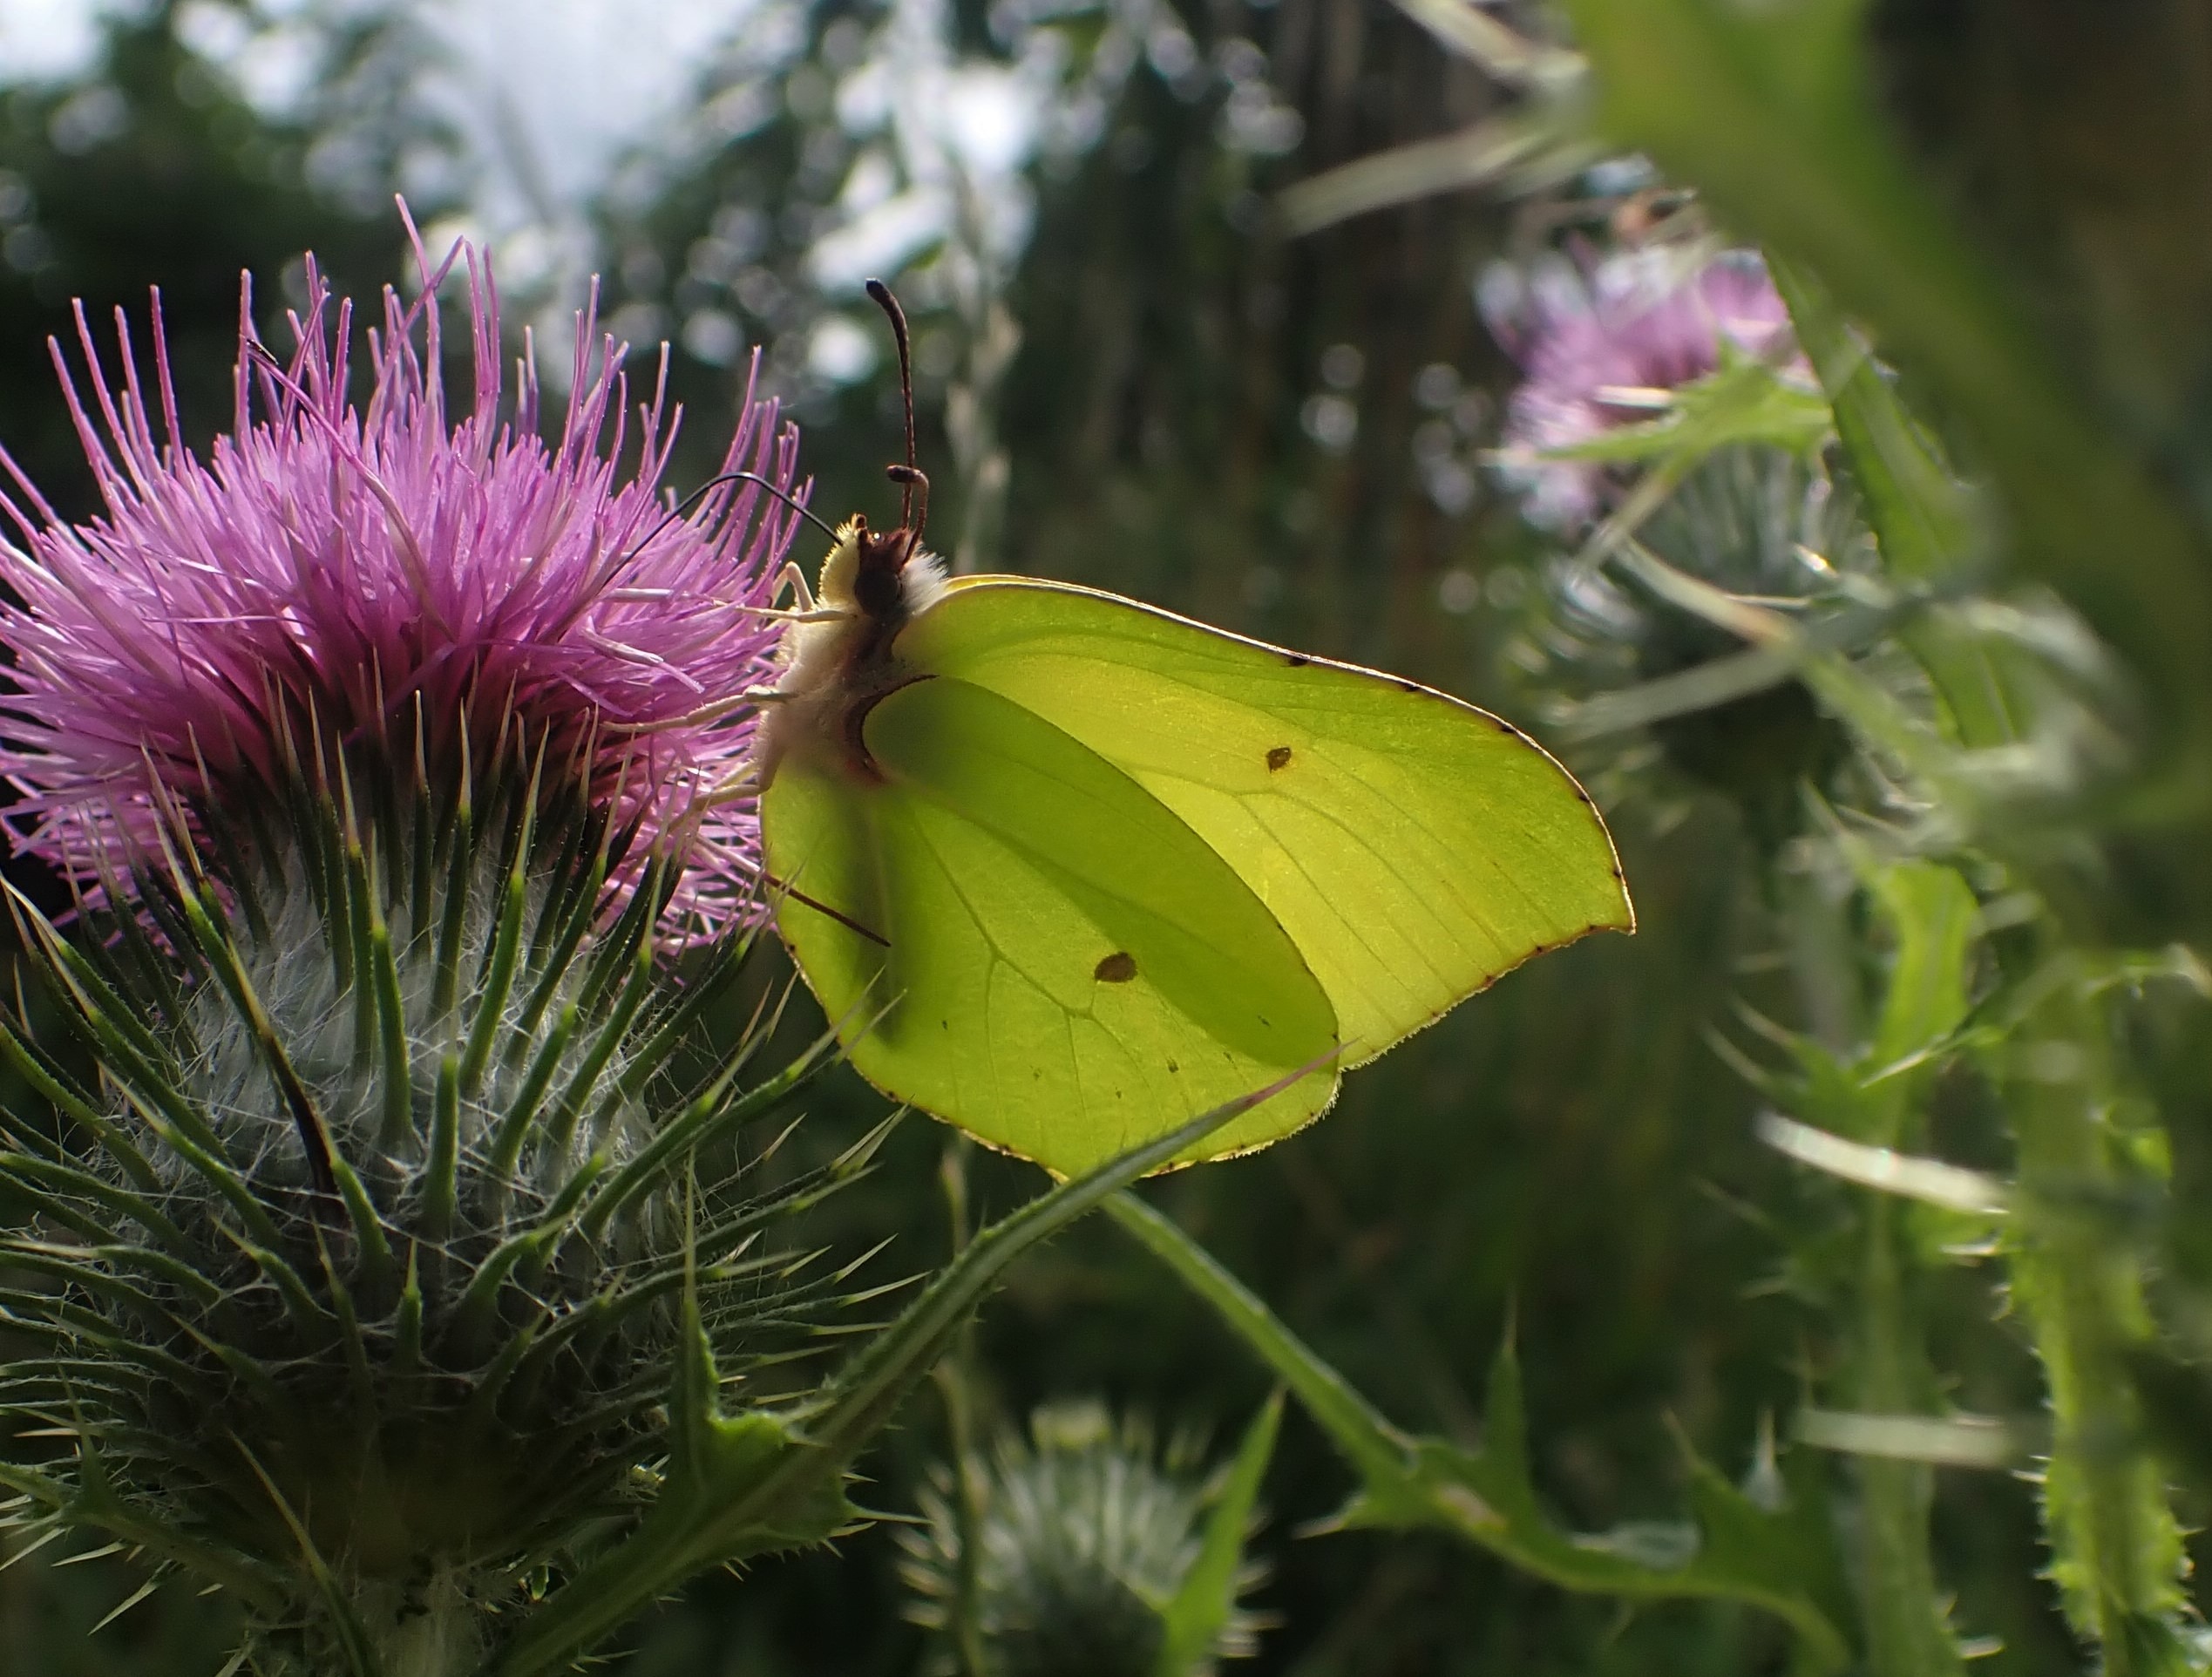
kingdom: Animalia
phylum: Arthropoda
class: Insecta
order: Lepidoptera
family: Pieridae
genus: Gonepteryx
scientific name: Gonepteryx rhamni
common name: Citronsommerfugl
